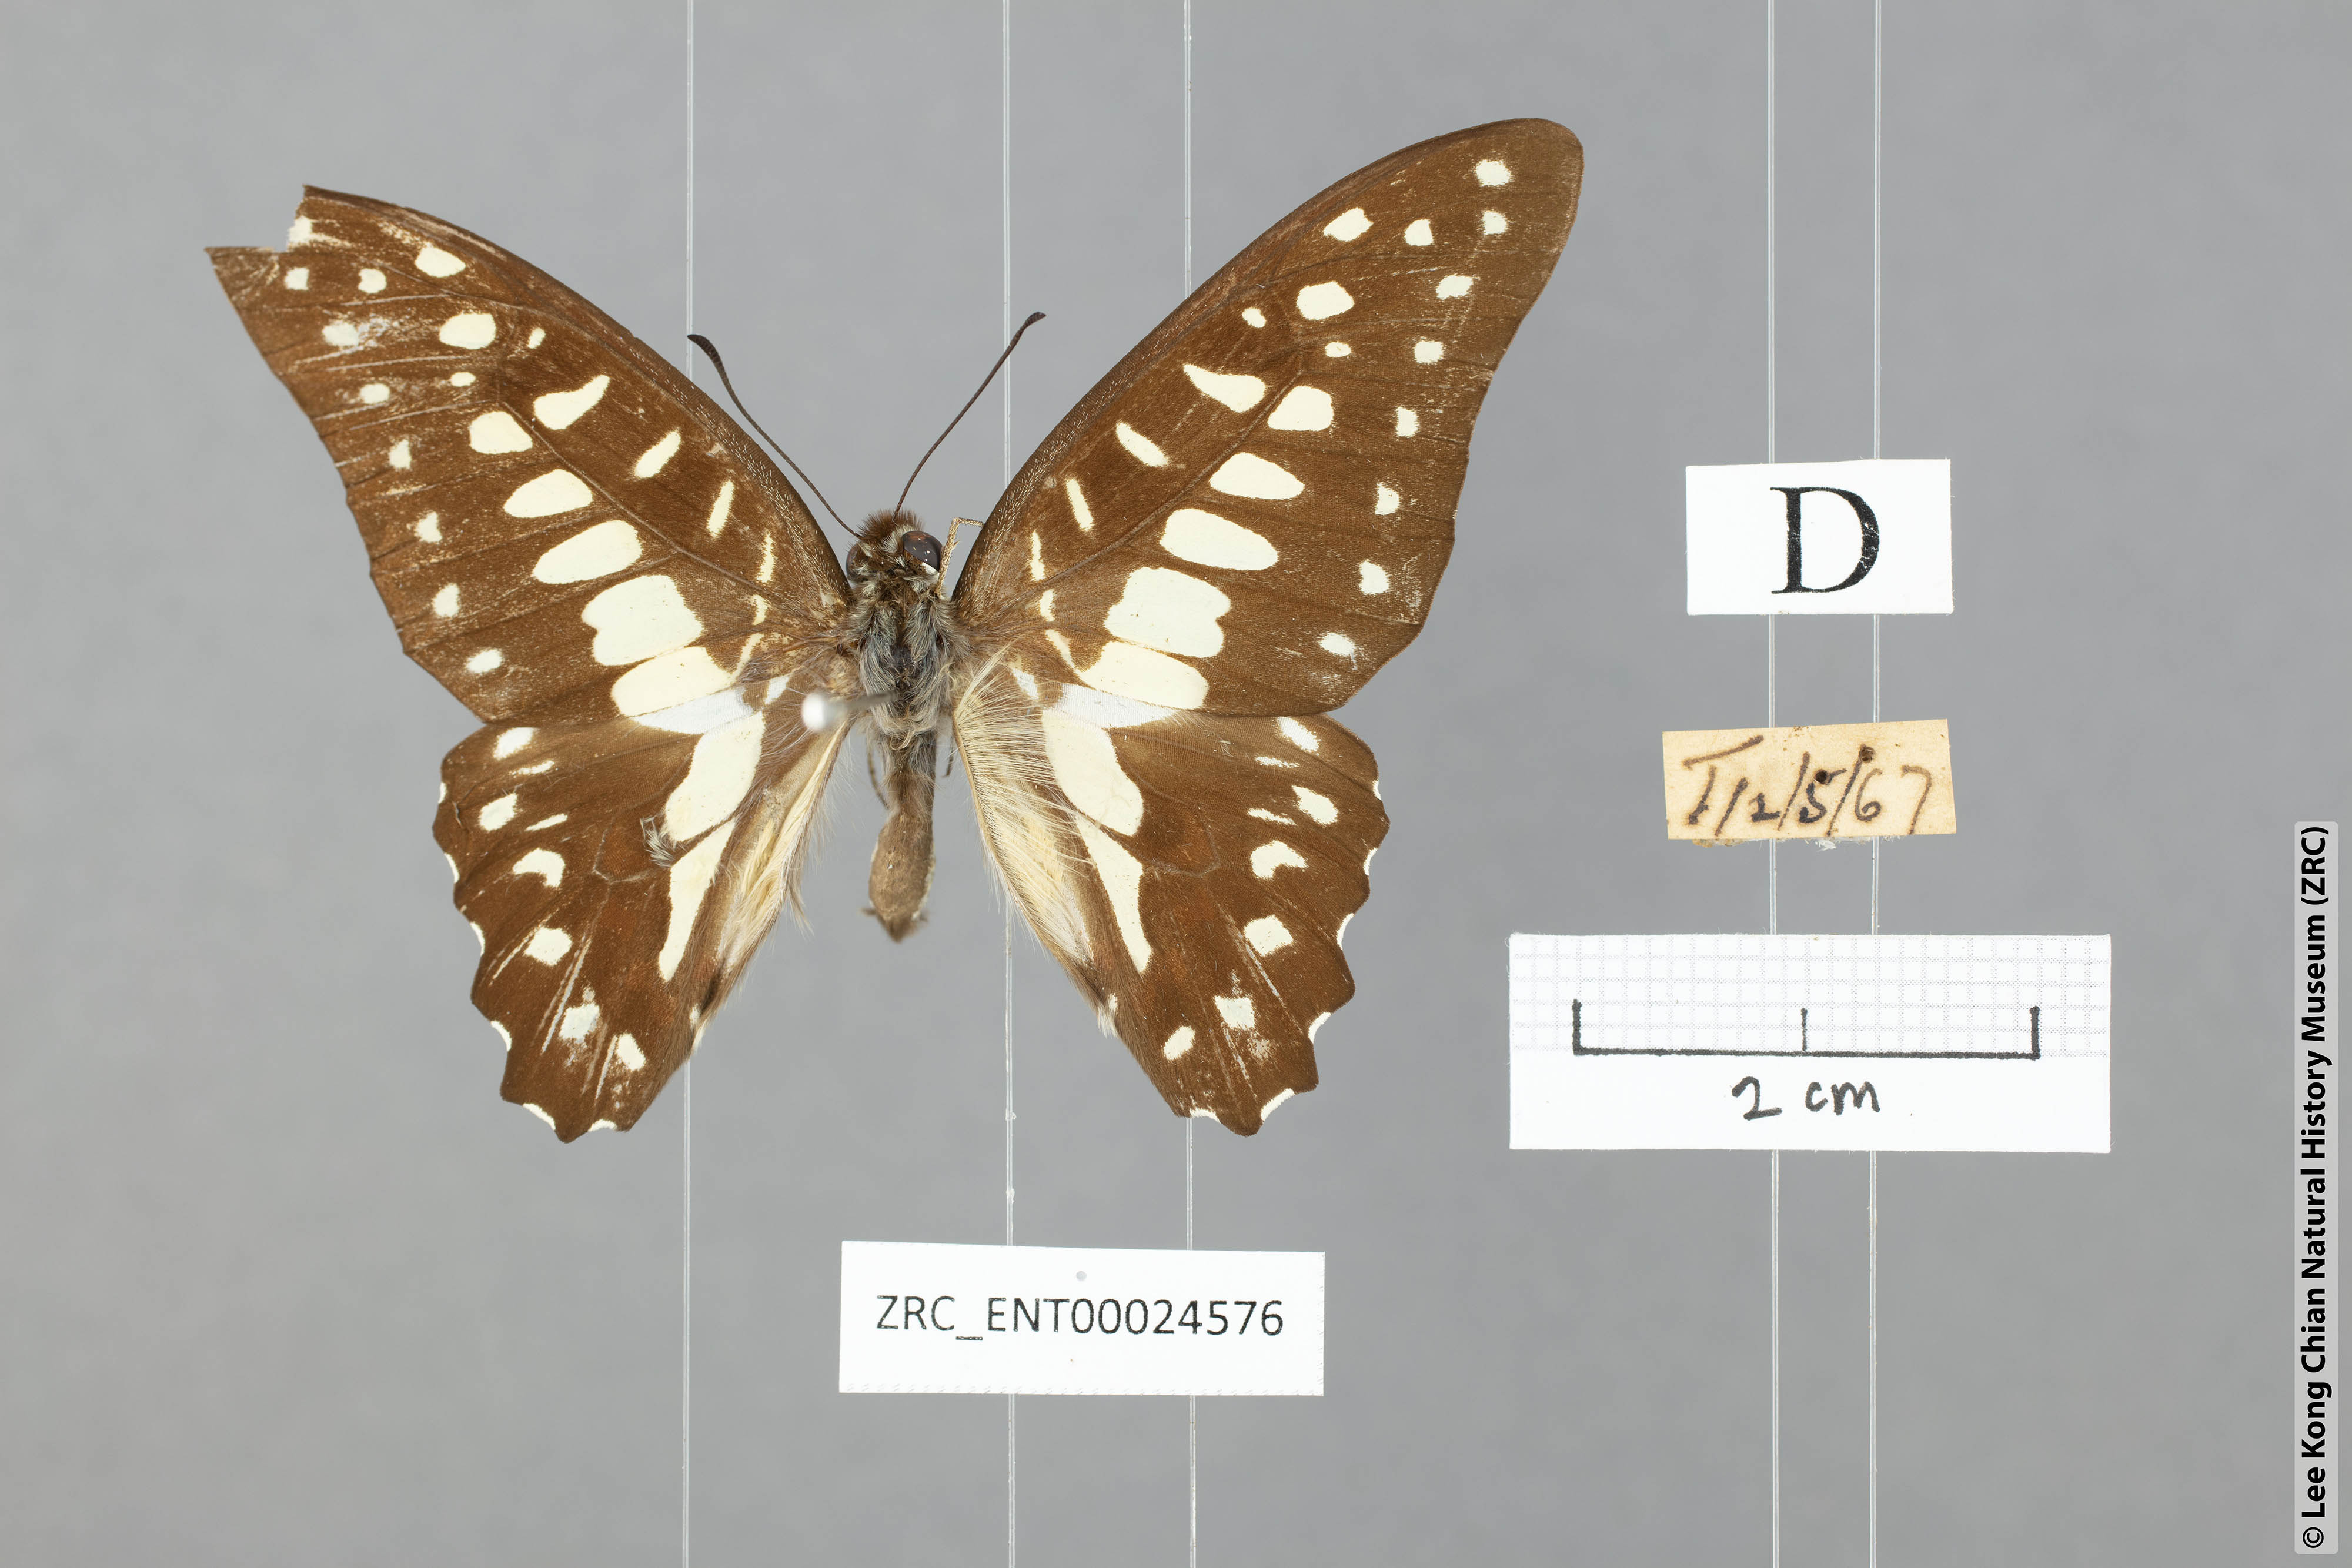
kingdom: Animalia
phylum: Arthropoda
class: Insecta
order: Lepidoptera
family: Papilionidae
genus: Graphium
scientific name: Graphium doson
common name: Common jay
